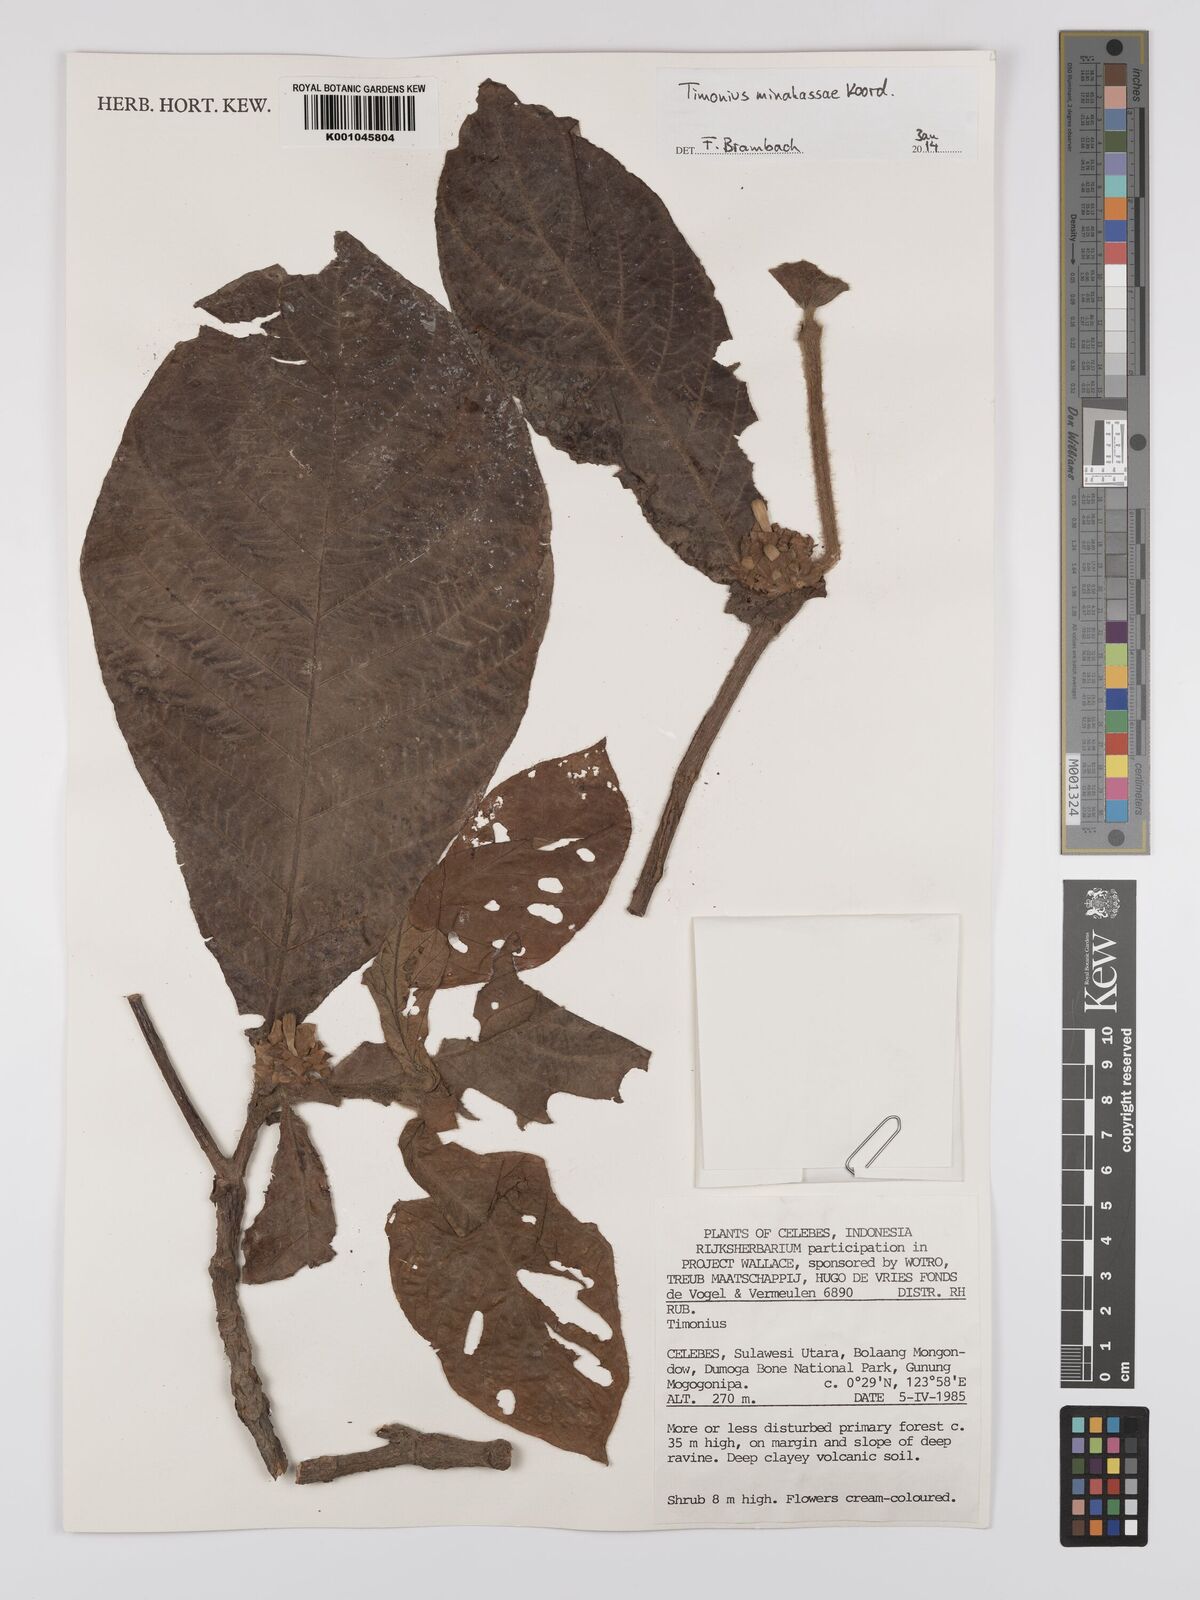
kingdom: Plantae
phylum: Tracheophyta
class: Magnoliopsida
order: Gentianales
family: Rubiaceae
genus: Timonius
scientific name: Timonius minahassae
